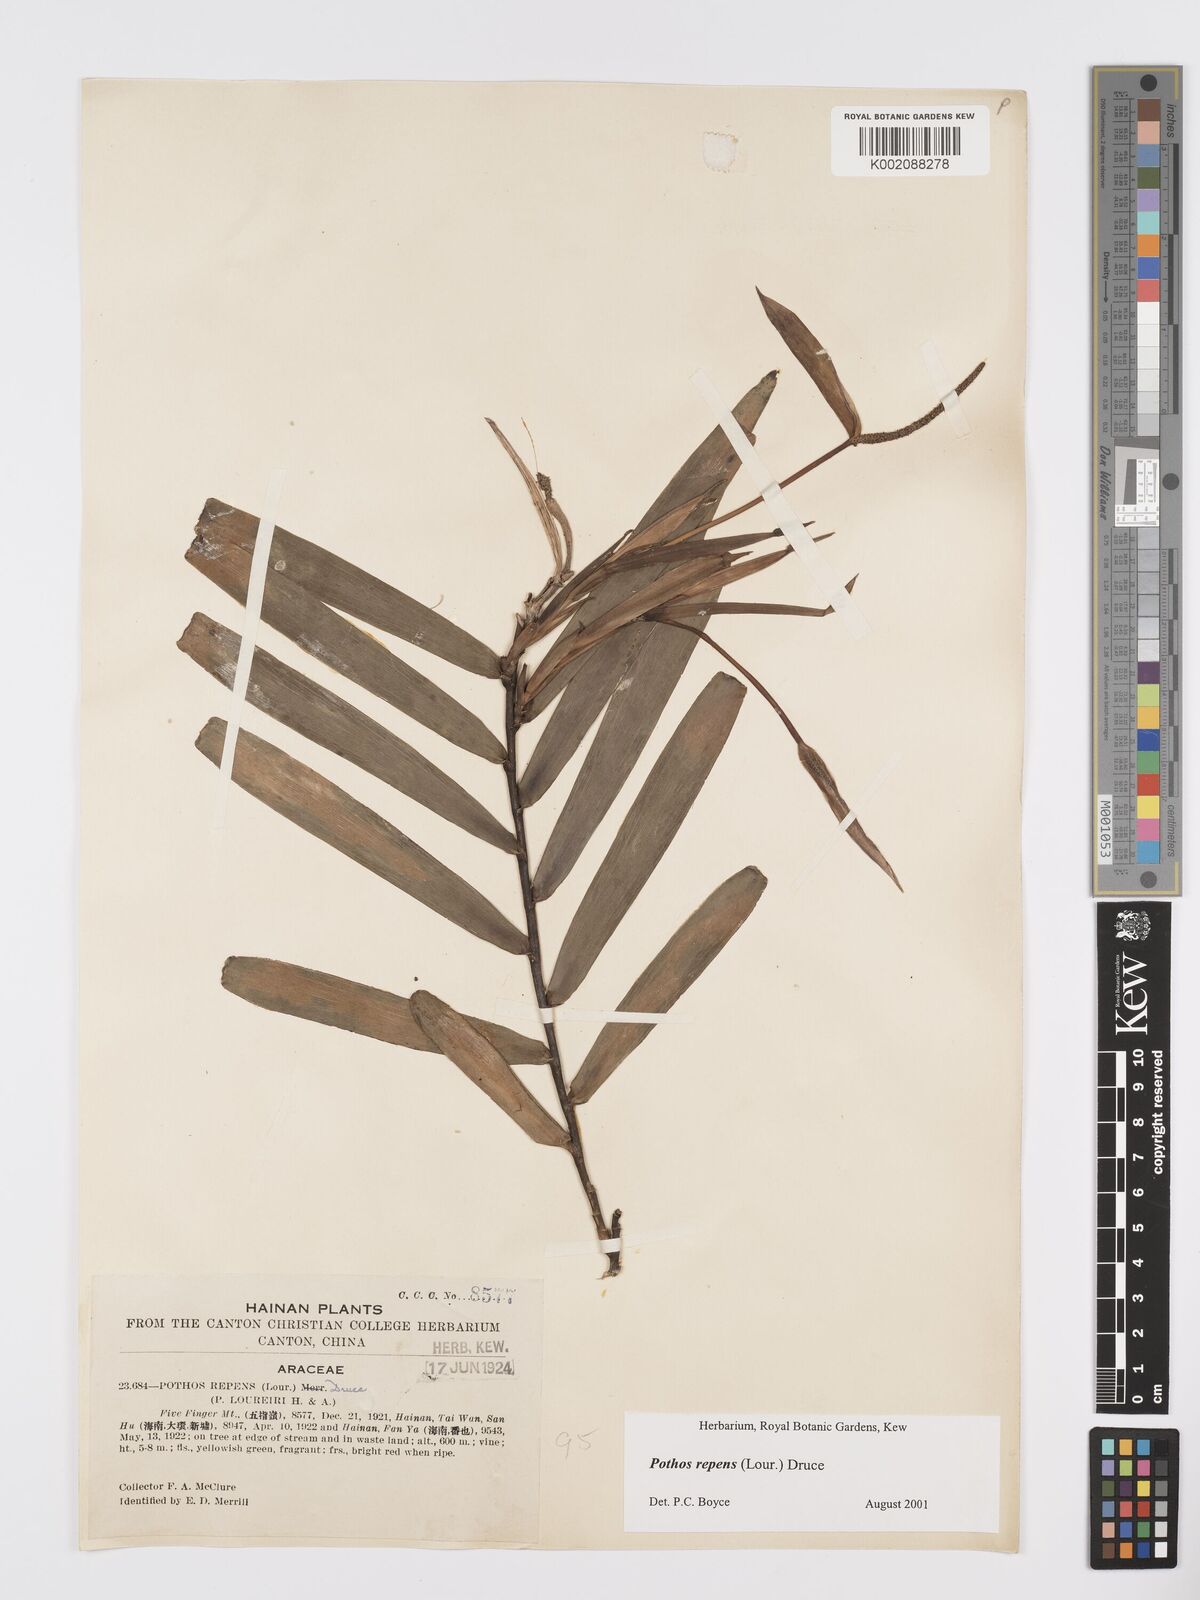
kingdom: Plantae
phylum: Tracheophyta
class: Liliopsida
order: Alismatales
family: Araceae
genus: Pothos
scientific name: Pothos repens
